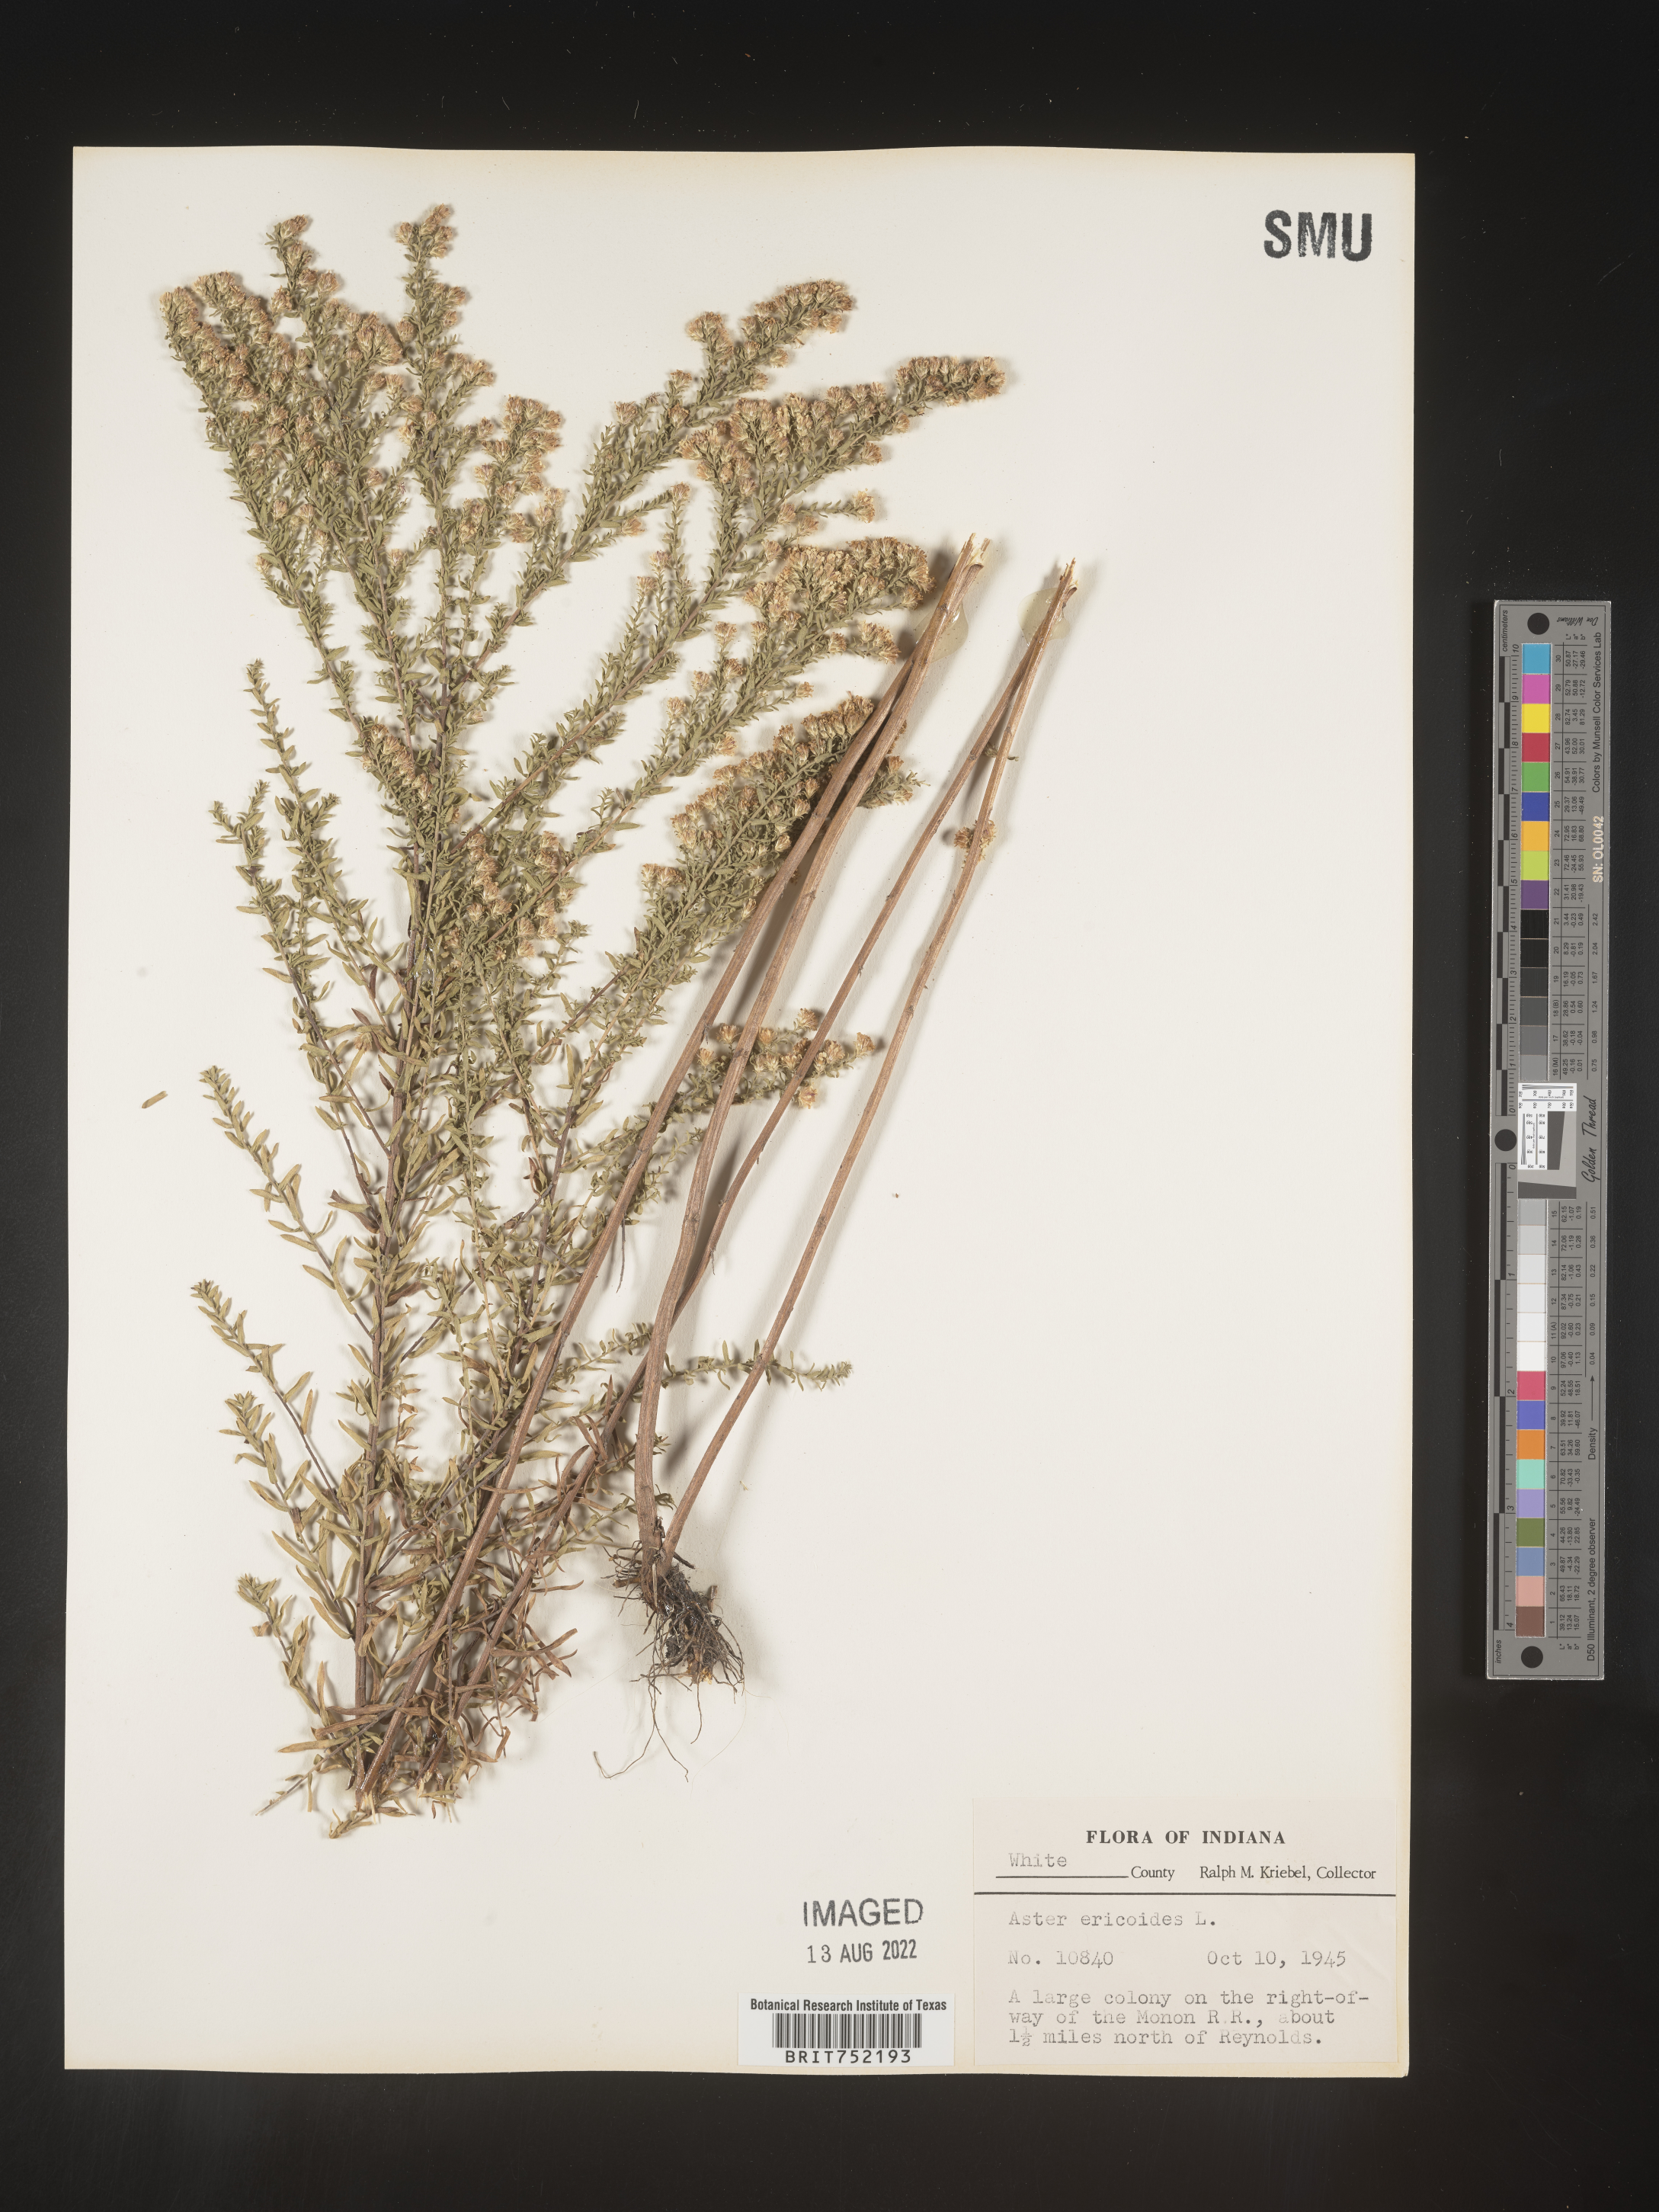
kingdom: Plantae
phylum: Tracheophyta
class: Magnoliopsida
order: Asterales
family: Asteraceae
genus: Symphyotrichum
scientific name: Symphyotrichum ericoides
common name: Heath aster
